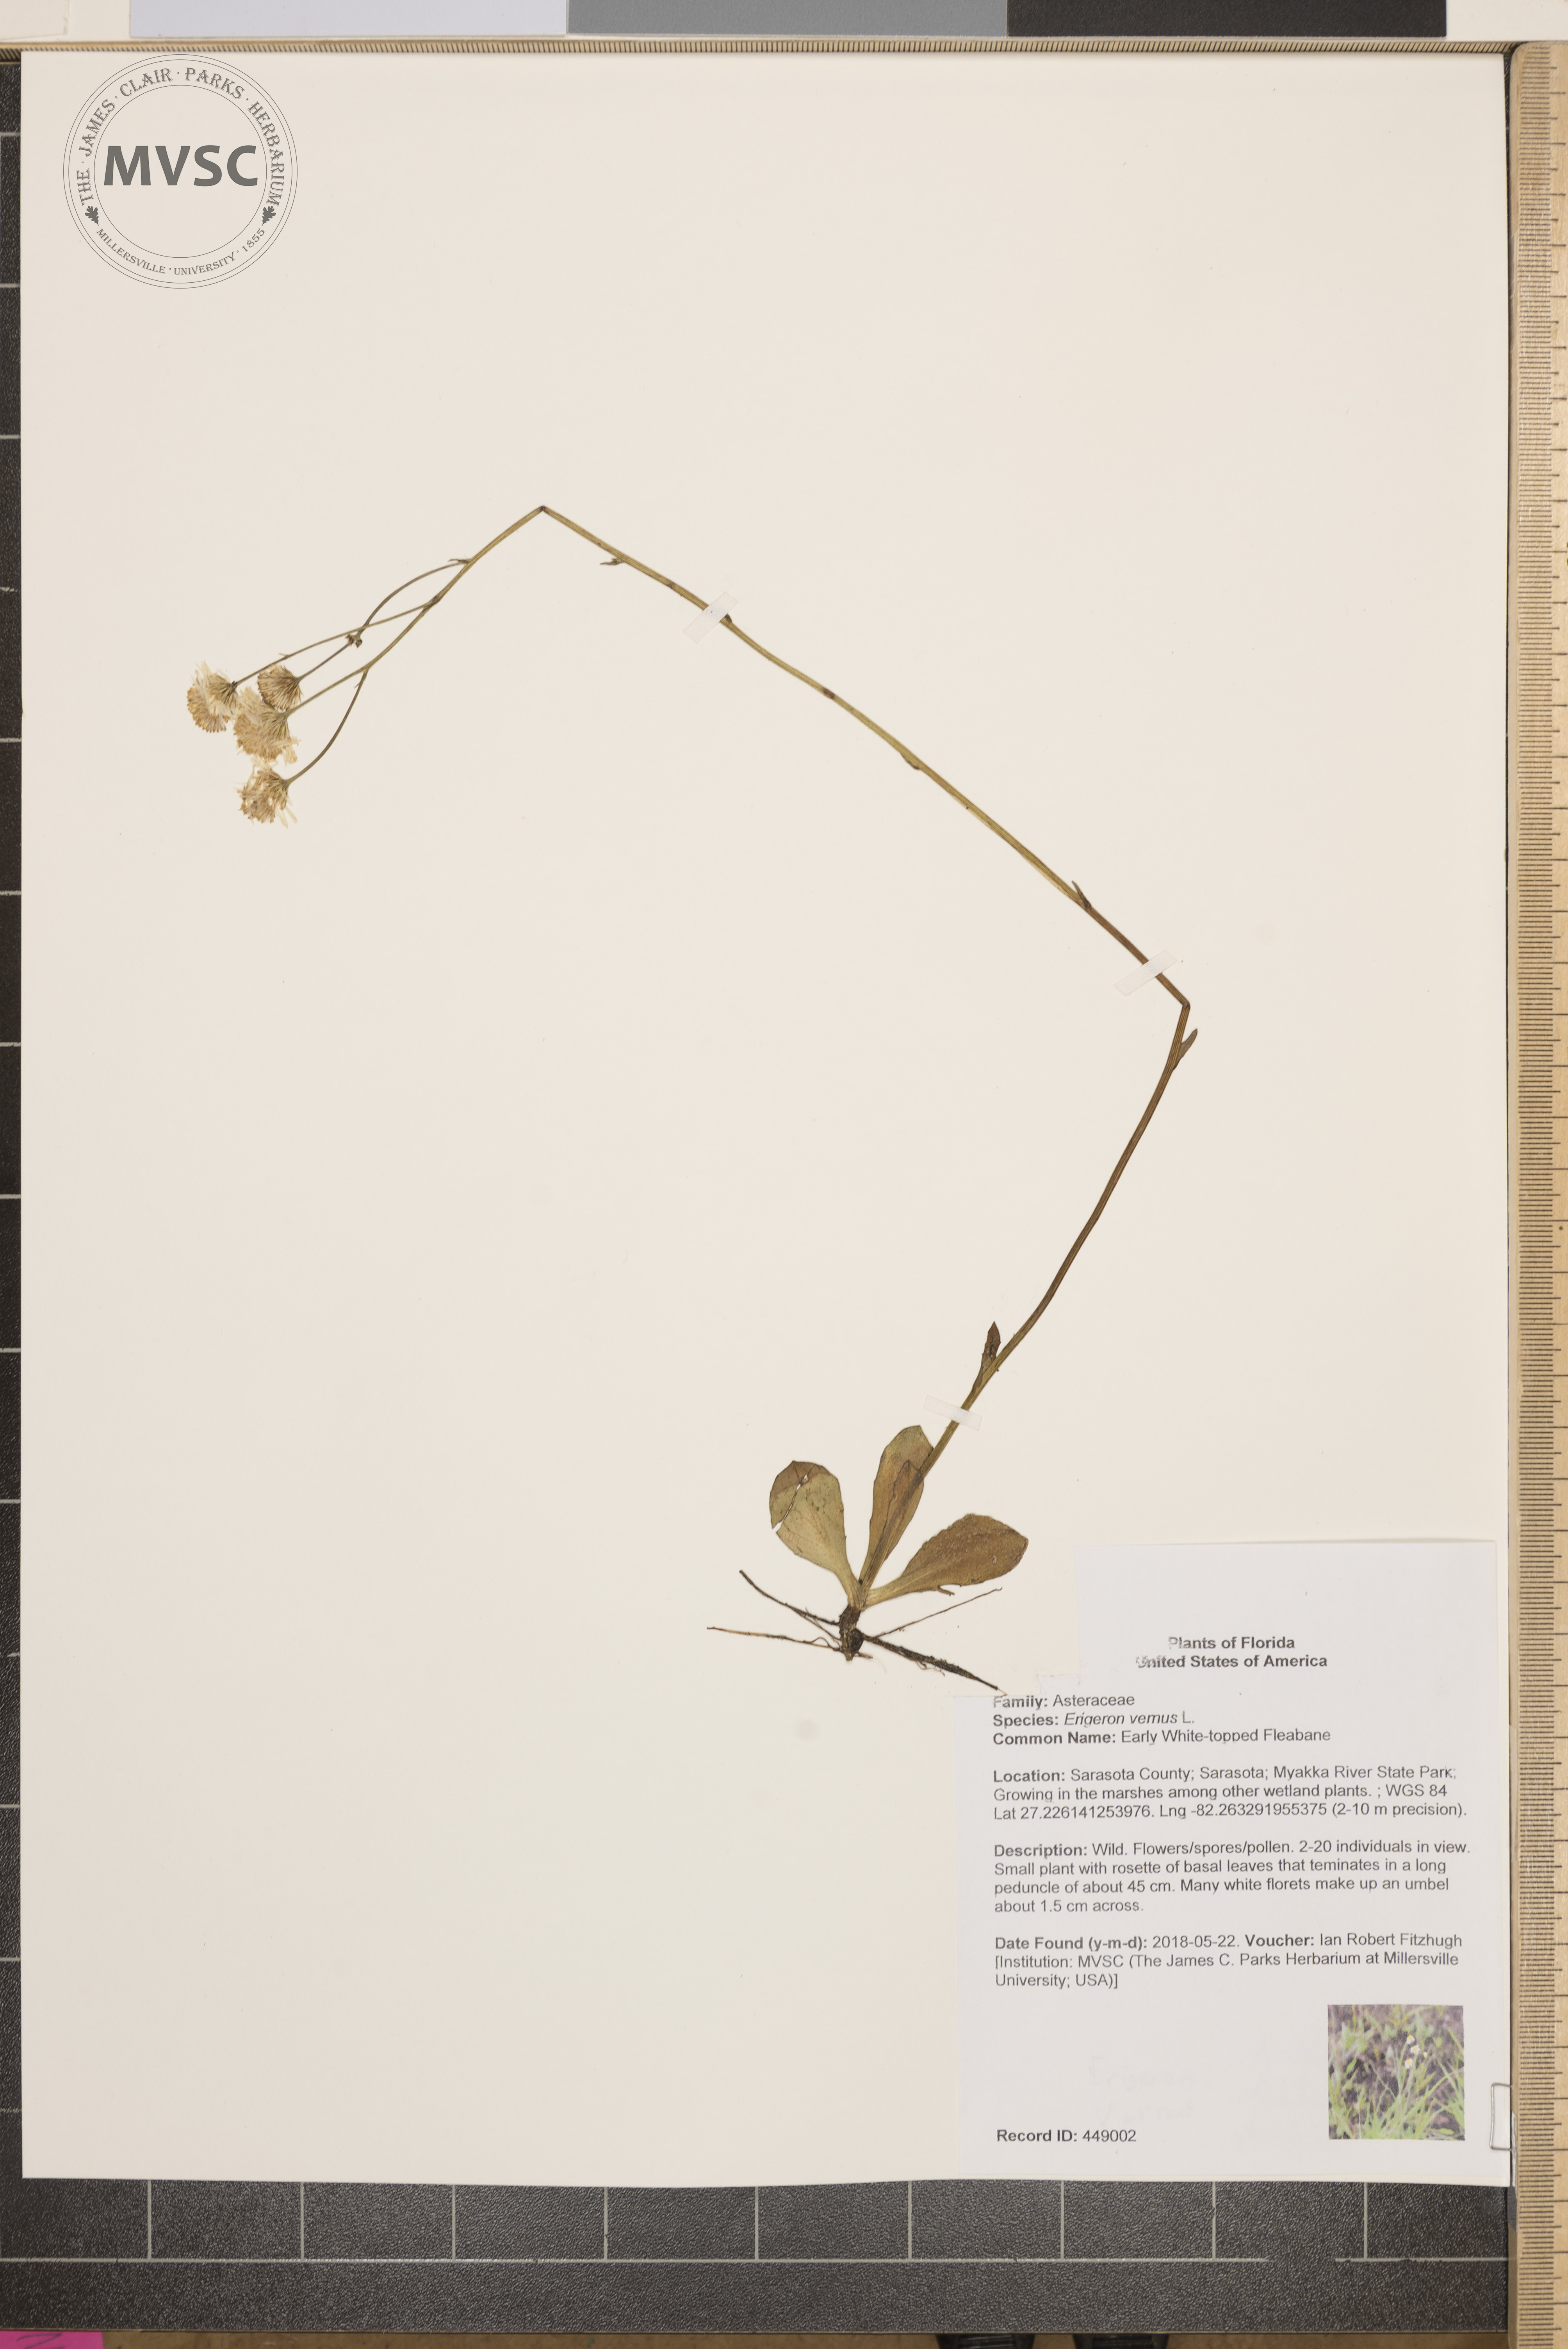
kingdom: Plantae
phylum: Tracheophyta
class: Magnoliopsida
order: Asterales
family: Asteraceae
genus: Erigeron
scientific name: Erigeron vernus
